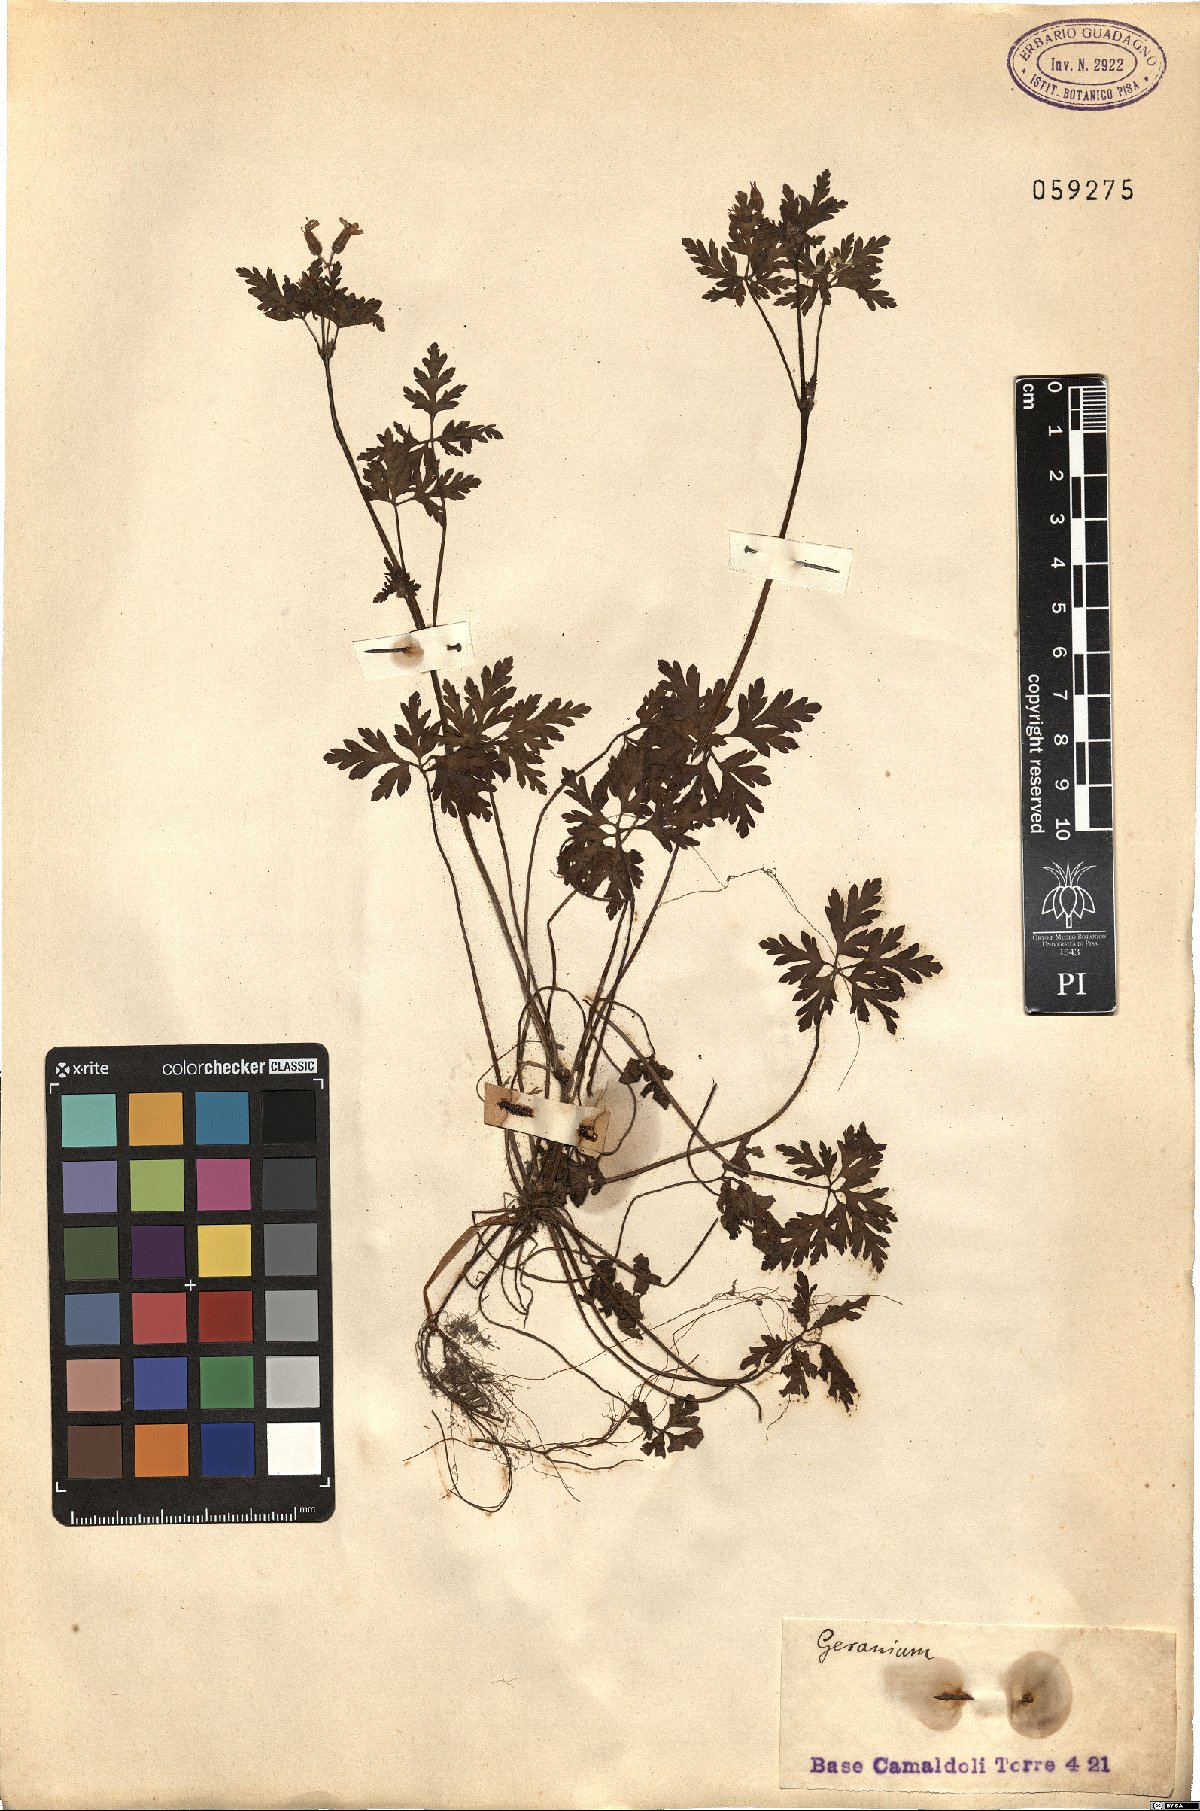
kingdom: Plantae
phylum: Tracheophyta
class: Magnoliopsida
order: Geraniales
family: Geraniaceae
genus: Geranium
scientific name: Geranium
